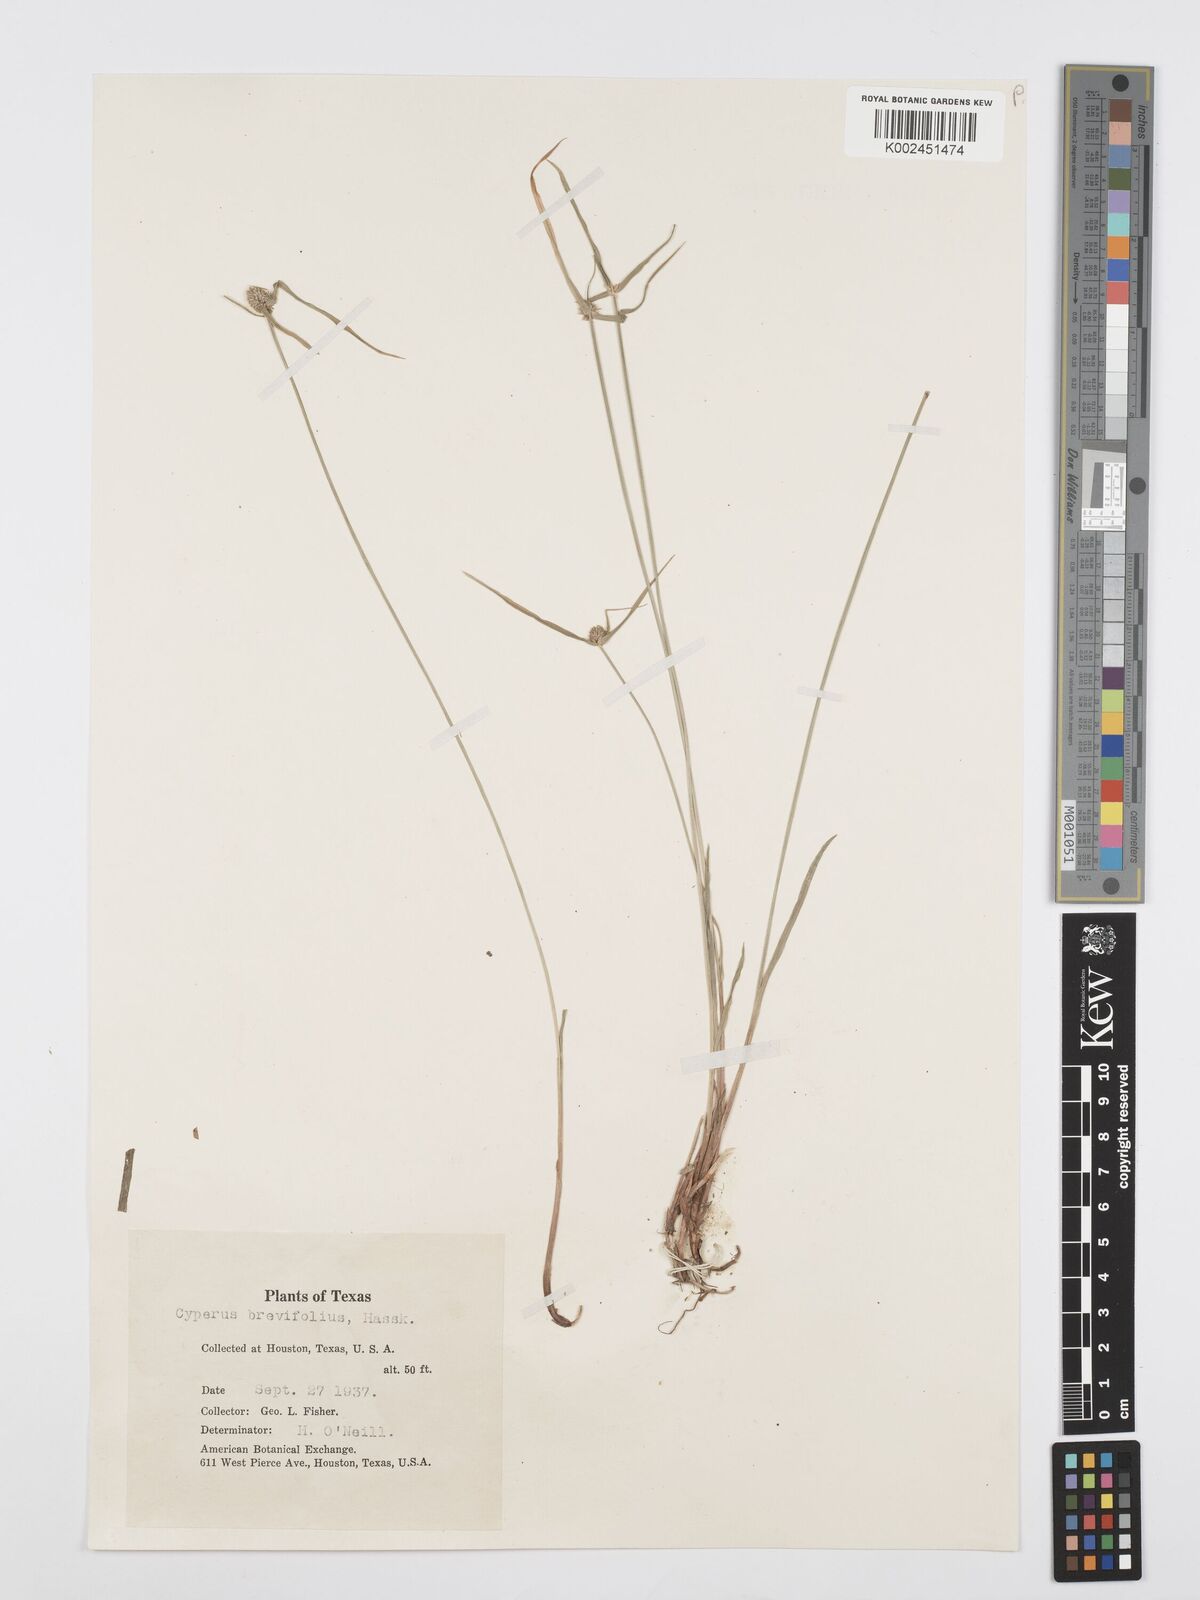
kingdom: Plantae
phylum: Tracheophyta
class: Liliopsida
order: Poales
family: Cyperaceae
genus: Cyperus
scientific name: Cyperus brevifolius
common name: Globe kyllinga
